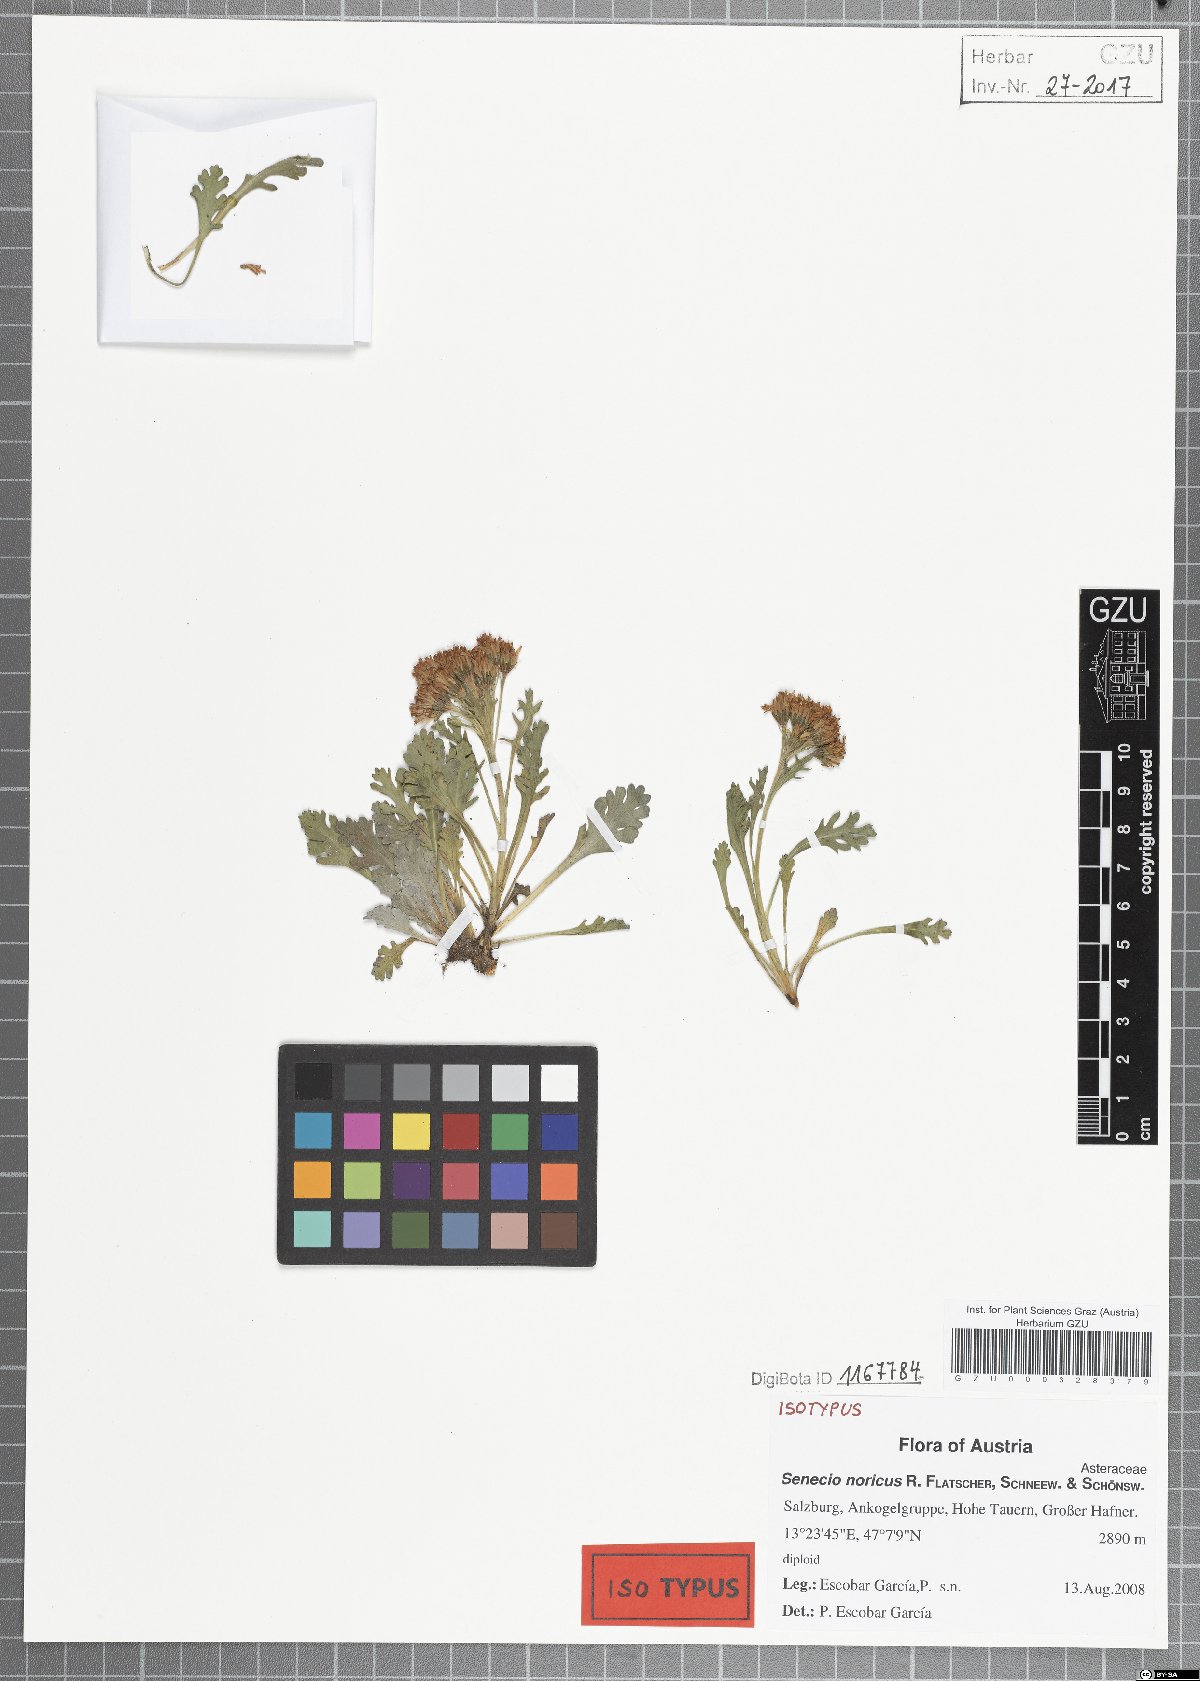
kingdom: Plantae
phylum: Tracheophyta
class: Magnoliopsida
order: Asterales
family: Asteraceae
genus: Jacobaea
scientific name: Jacobaea norica
